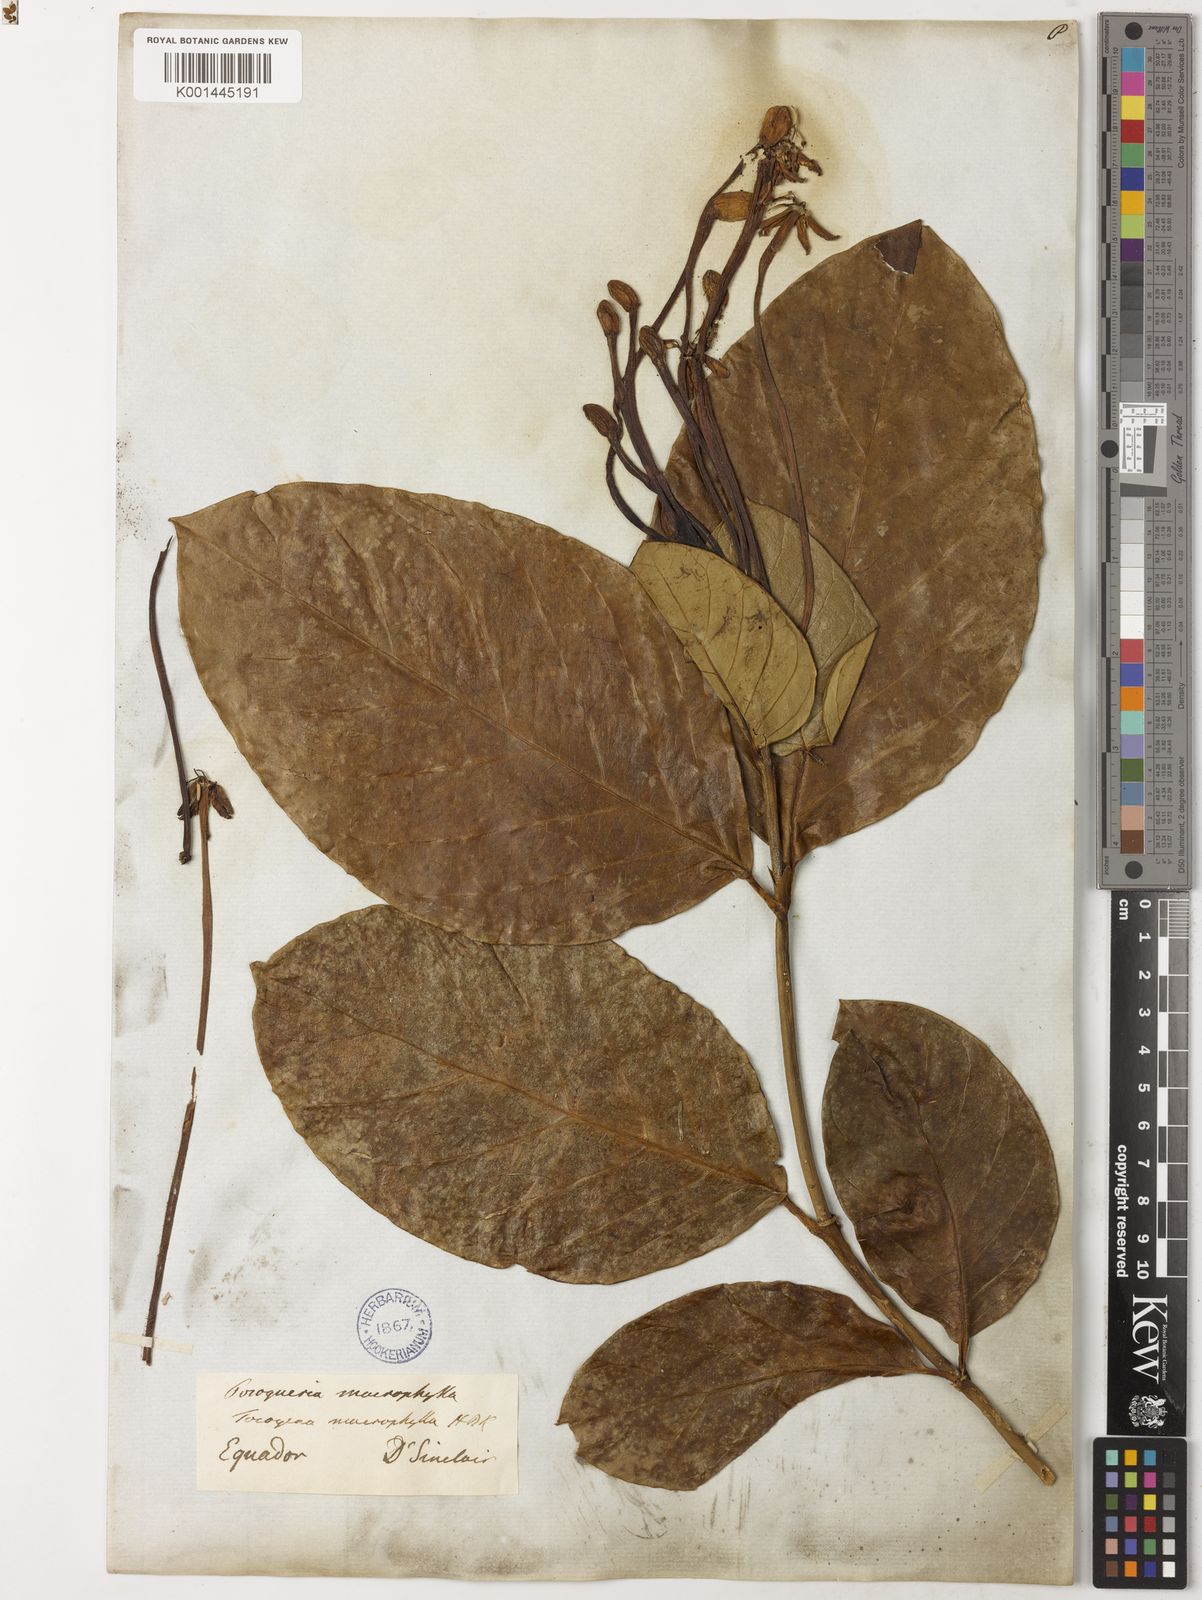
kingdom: Plantae
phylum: Tracheophyta
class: Magnoliopsida
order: Gentianales
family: Rubiaceae
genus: Posoqueria
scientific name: Posoqueria latifolia
